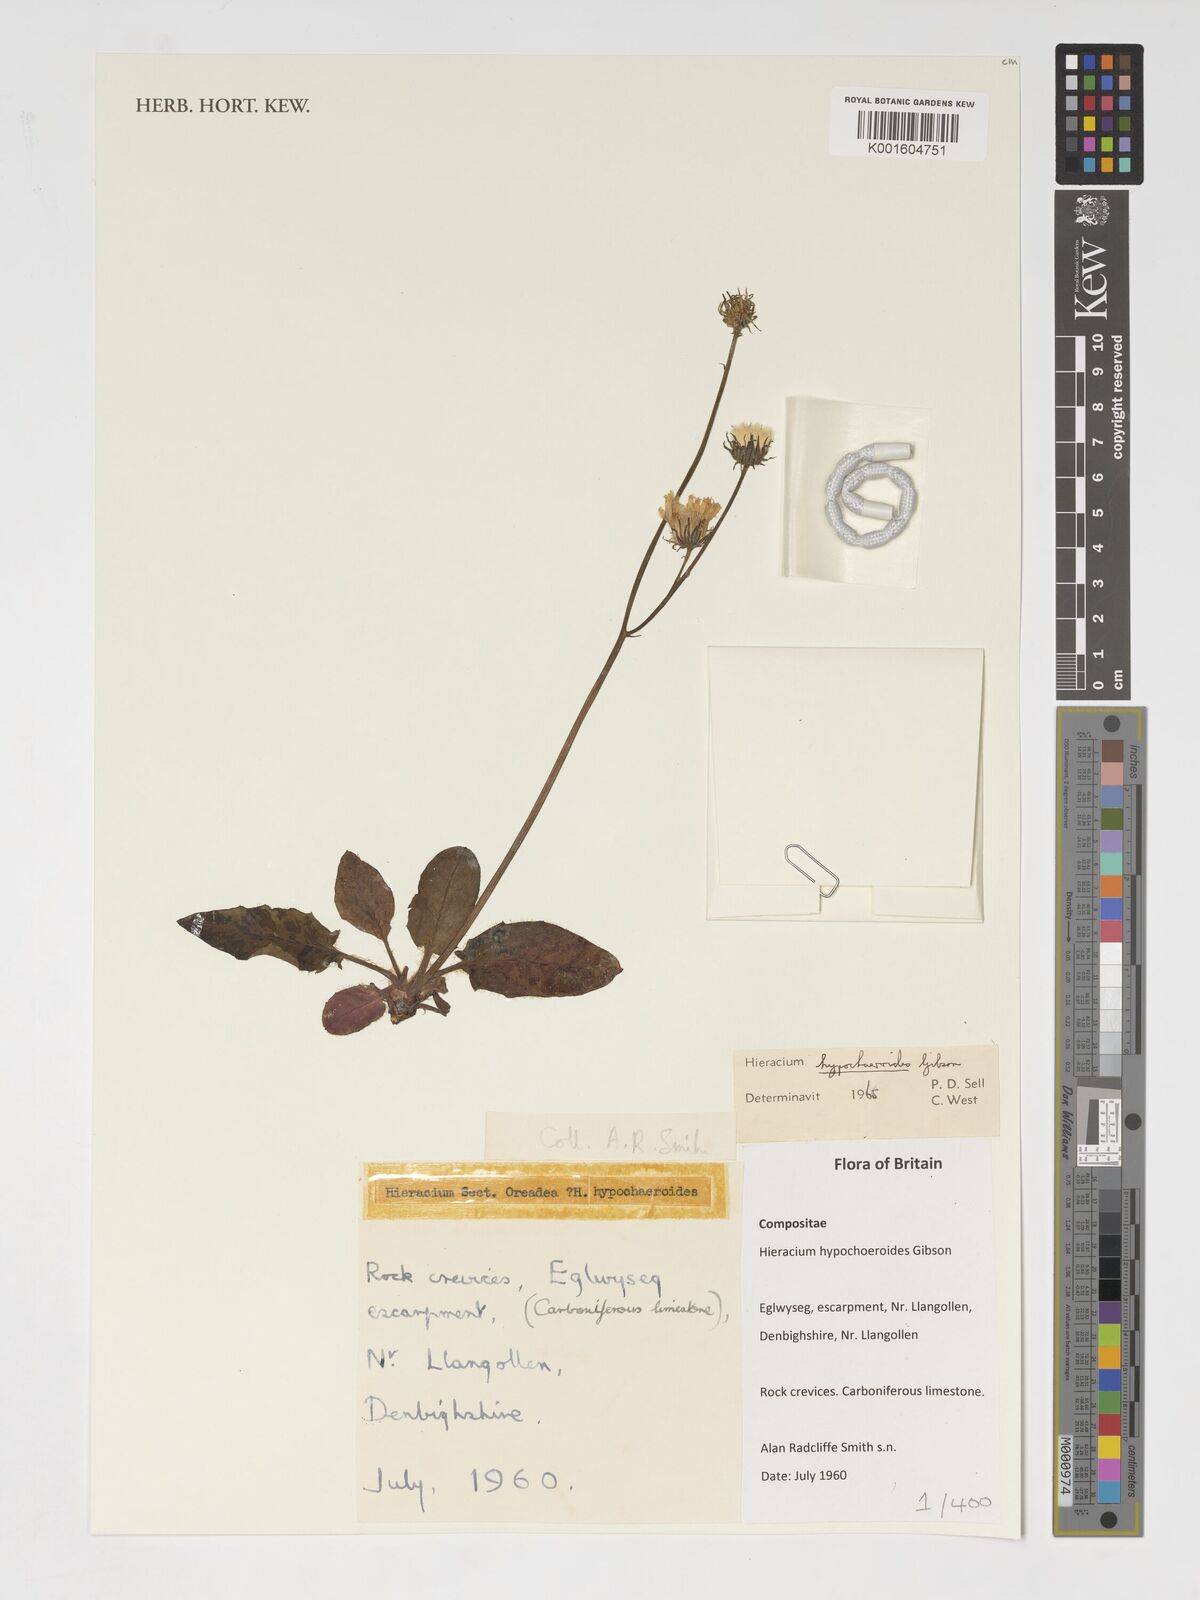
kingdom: Plantae
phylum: Tracheophyta
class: Magnoliopsida
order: Asterales
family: Asteraceae
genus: Hieracium
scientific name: Hieracium hypochoeroides
